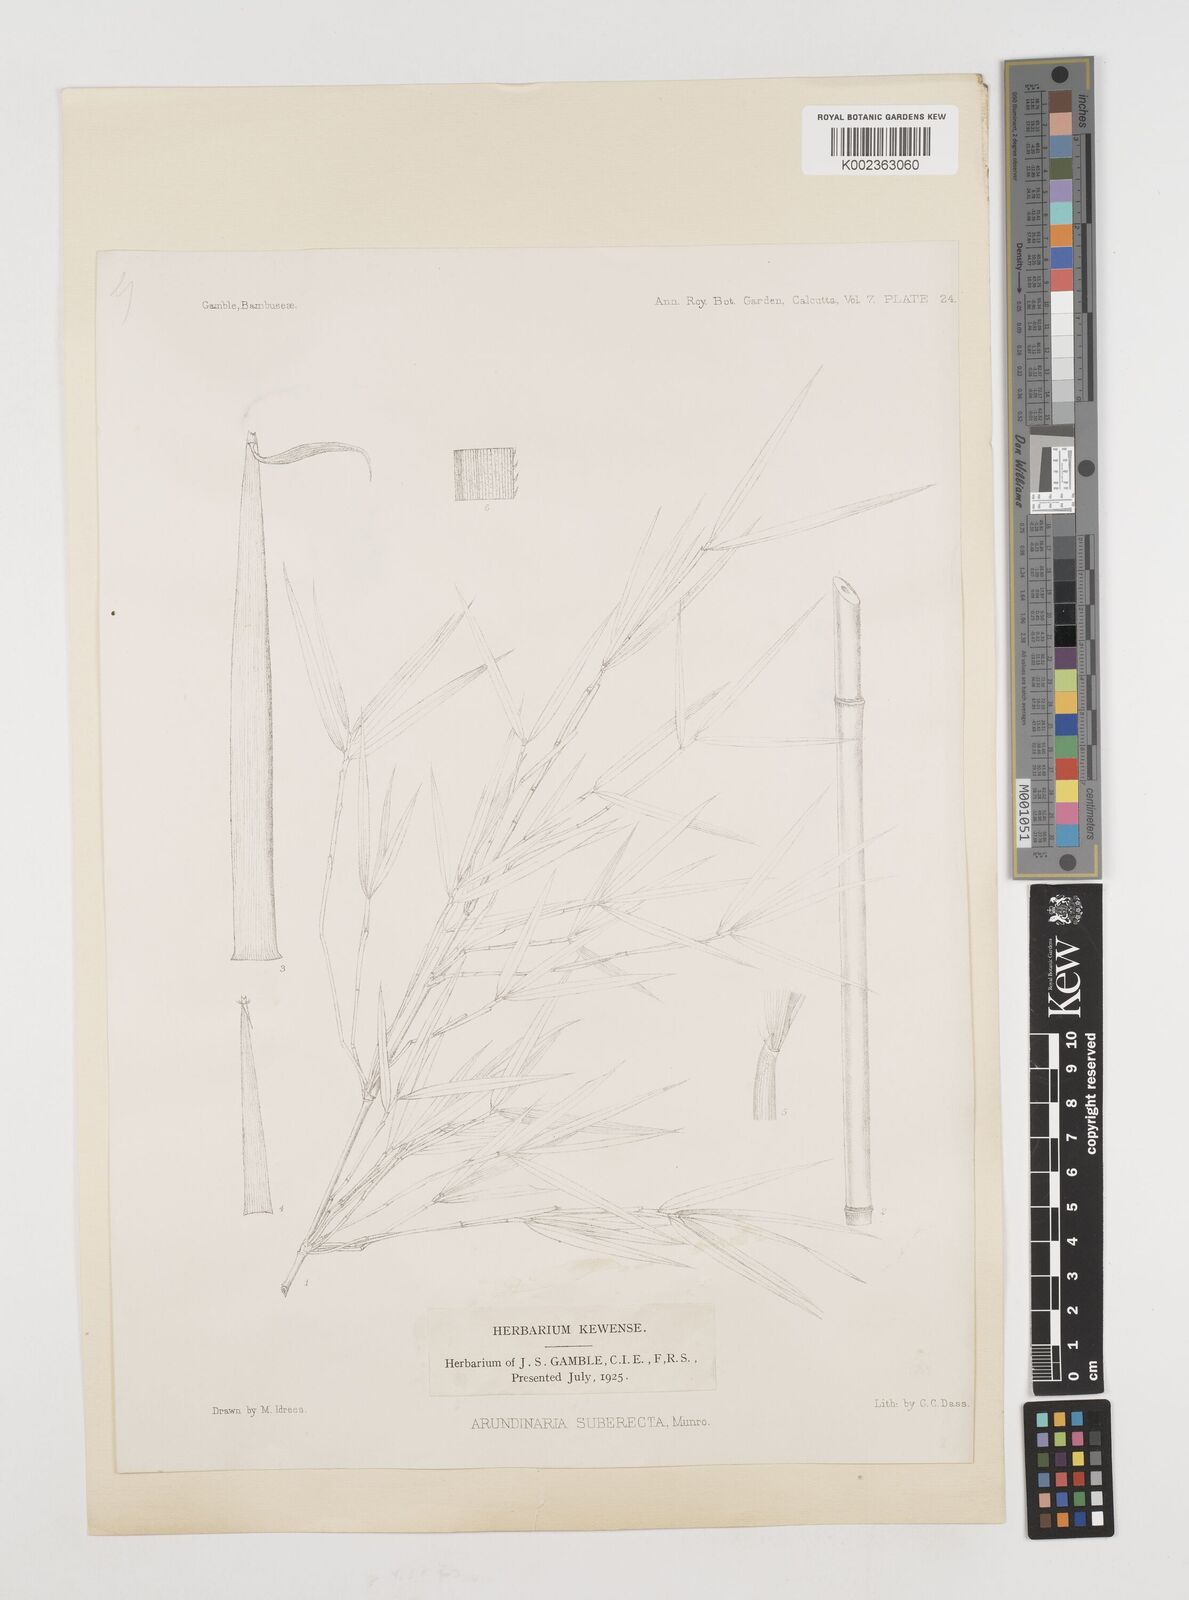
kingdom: Plantae
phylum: Tracheophyta
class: Liliopsida
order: Poales
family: Poaceae
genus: Drepanostachyum
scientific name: Drepanostachyum khasianum
